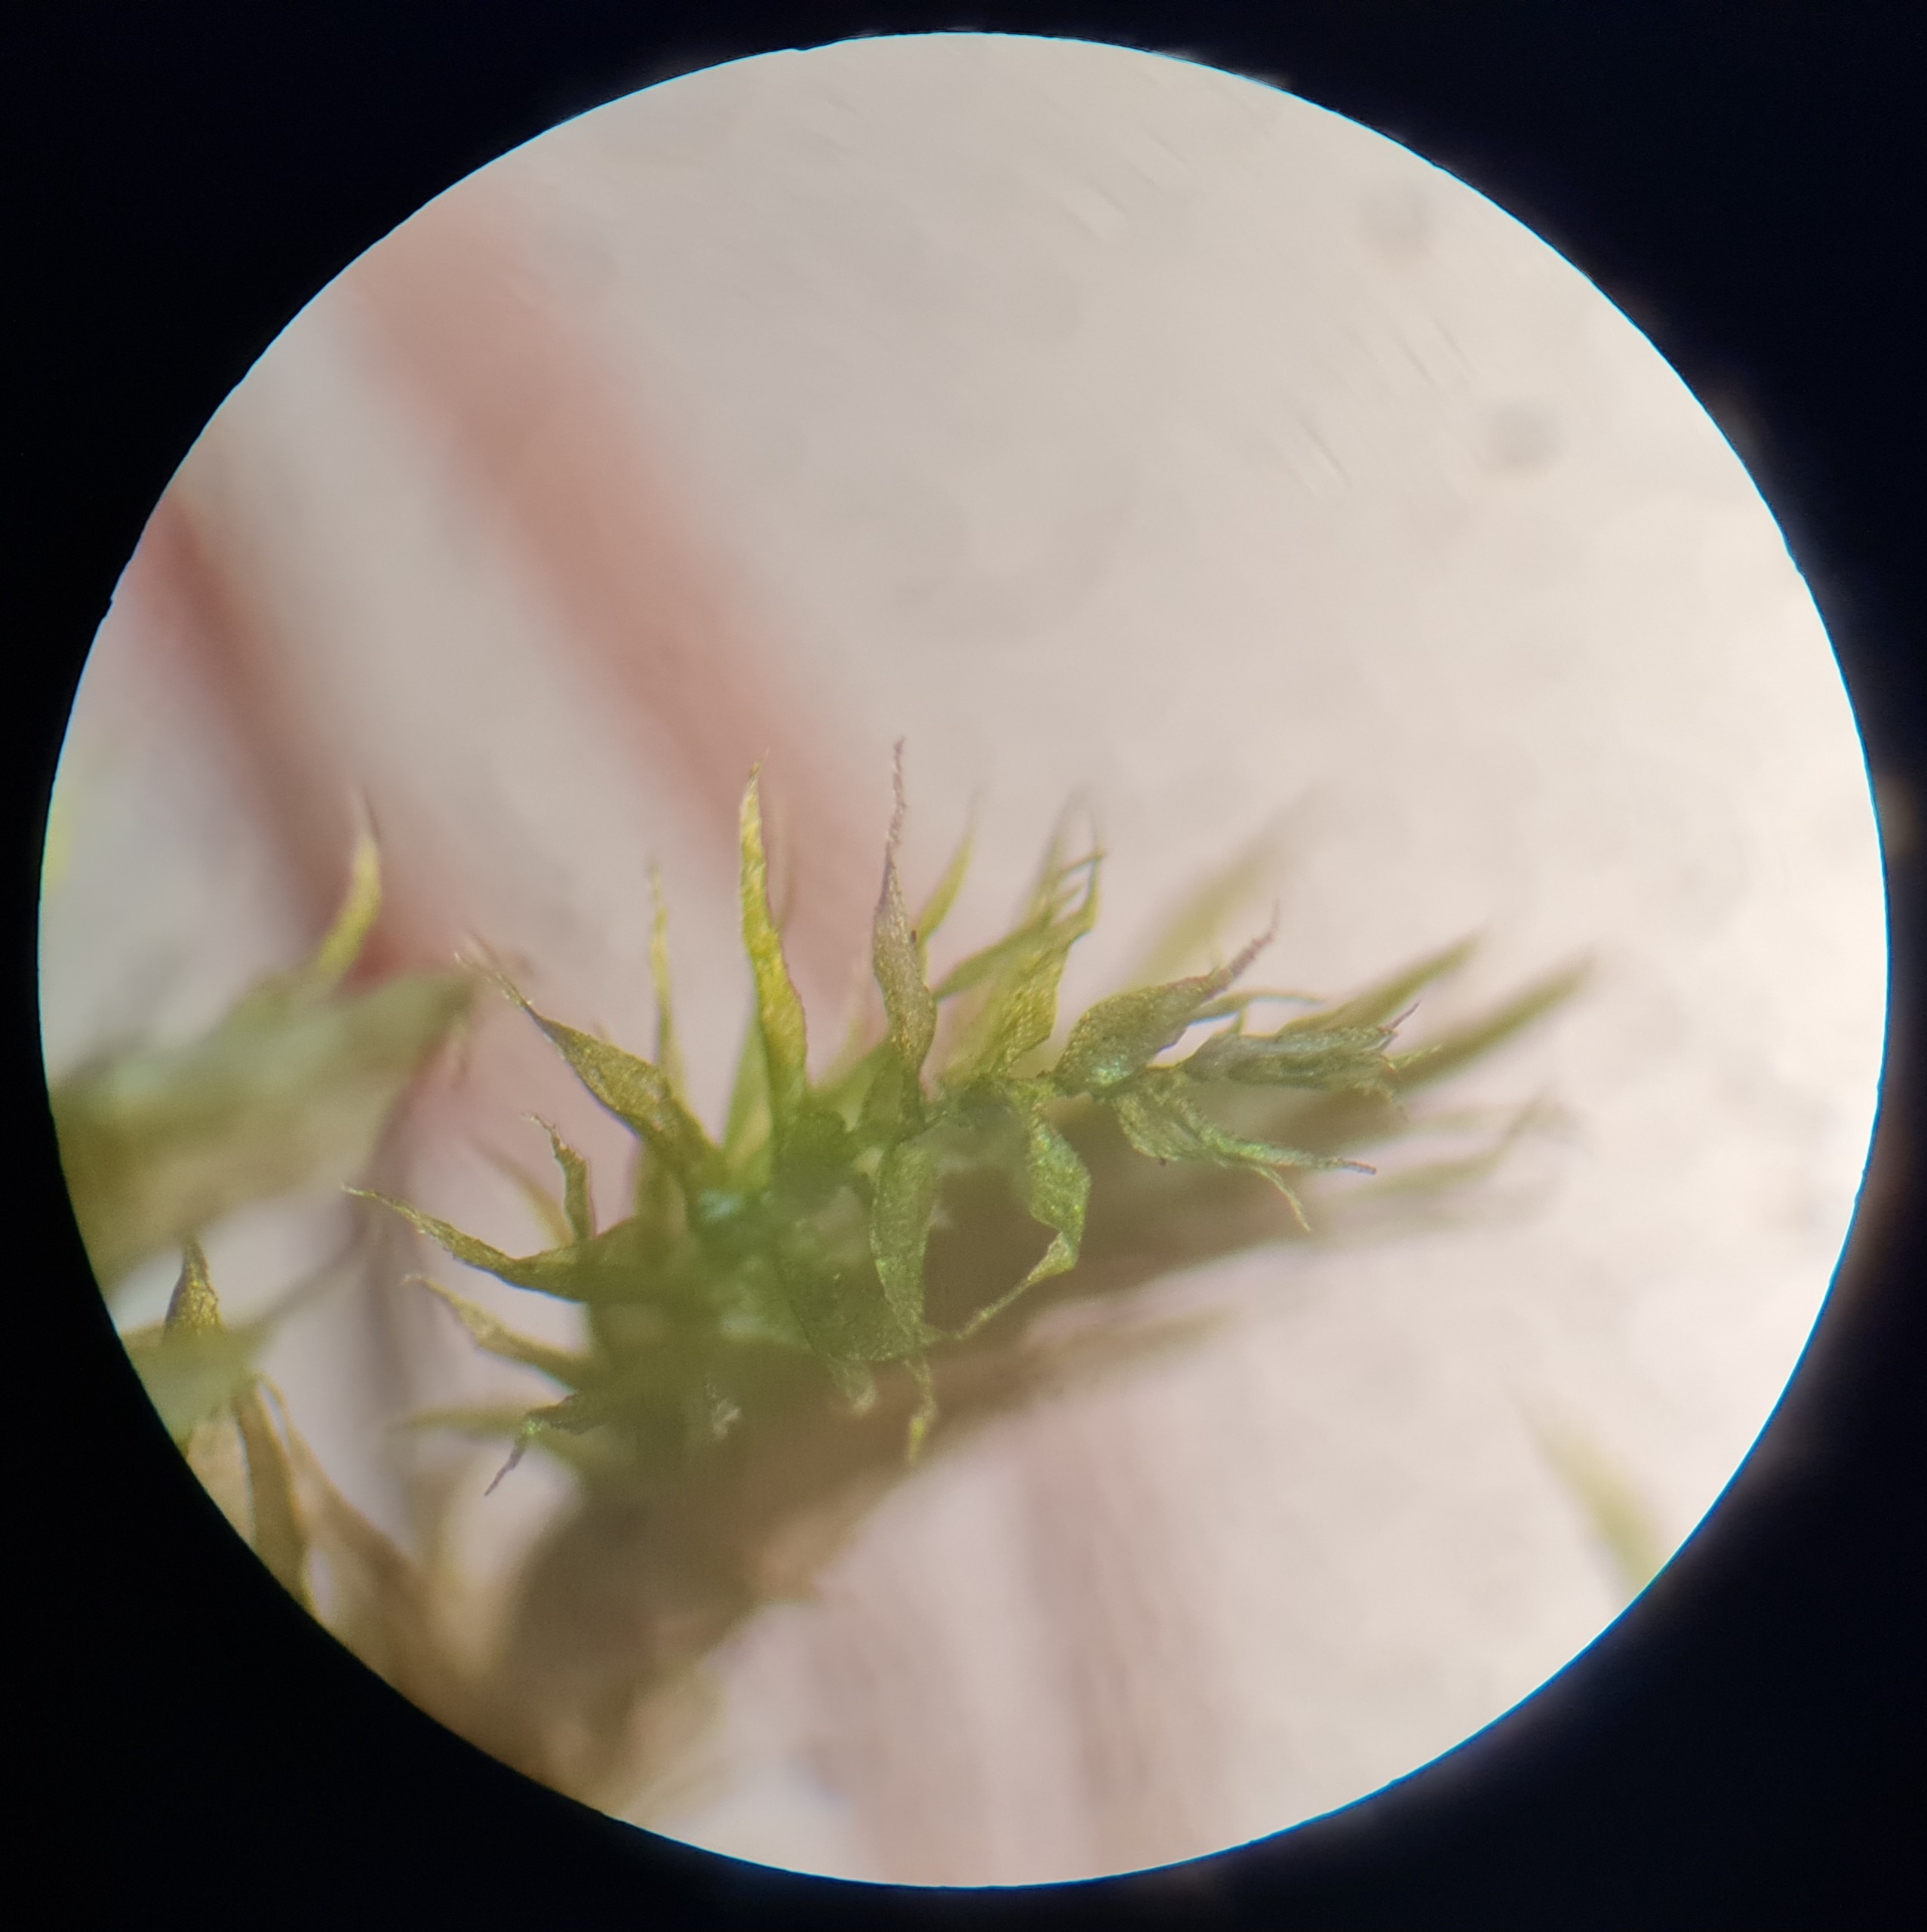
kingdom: Plantae
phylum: Bryophyta
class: Bryopsida
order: Hypnales
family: Brachytheciaceae
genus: Brachythecium
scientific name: Brachythecium rutabulum
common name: Almindelig kortkapsel
